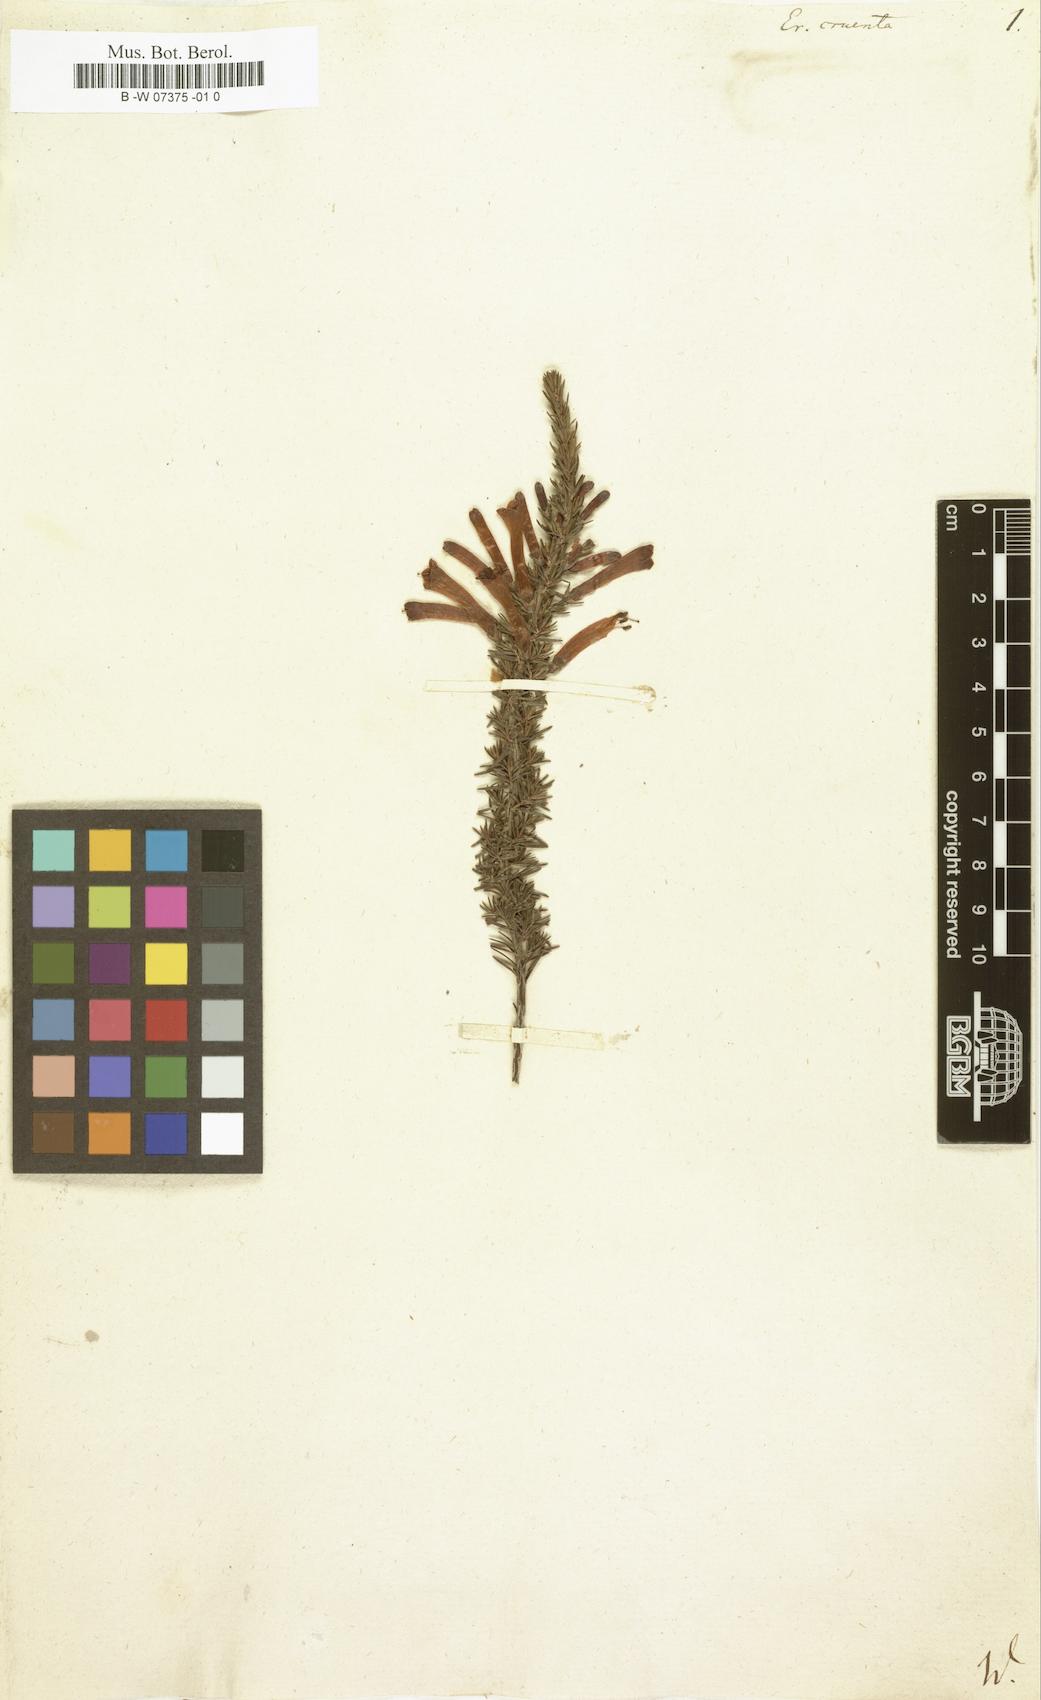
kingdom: Plantae
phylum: Tracheophyta
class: Magnoliopsida
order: Ericales
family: Ericaceae
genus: Erica
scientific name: Erica cruenta
